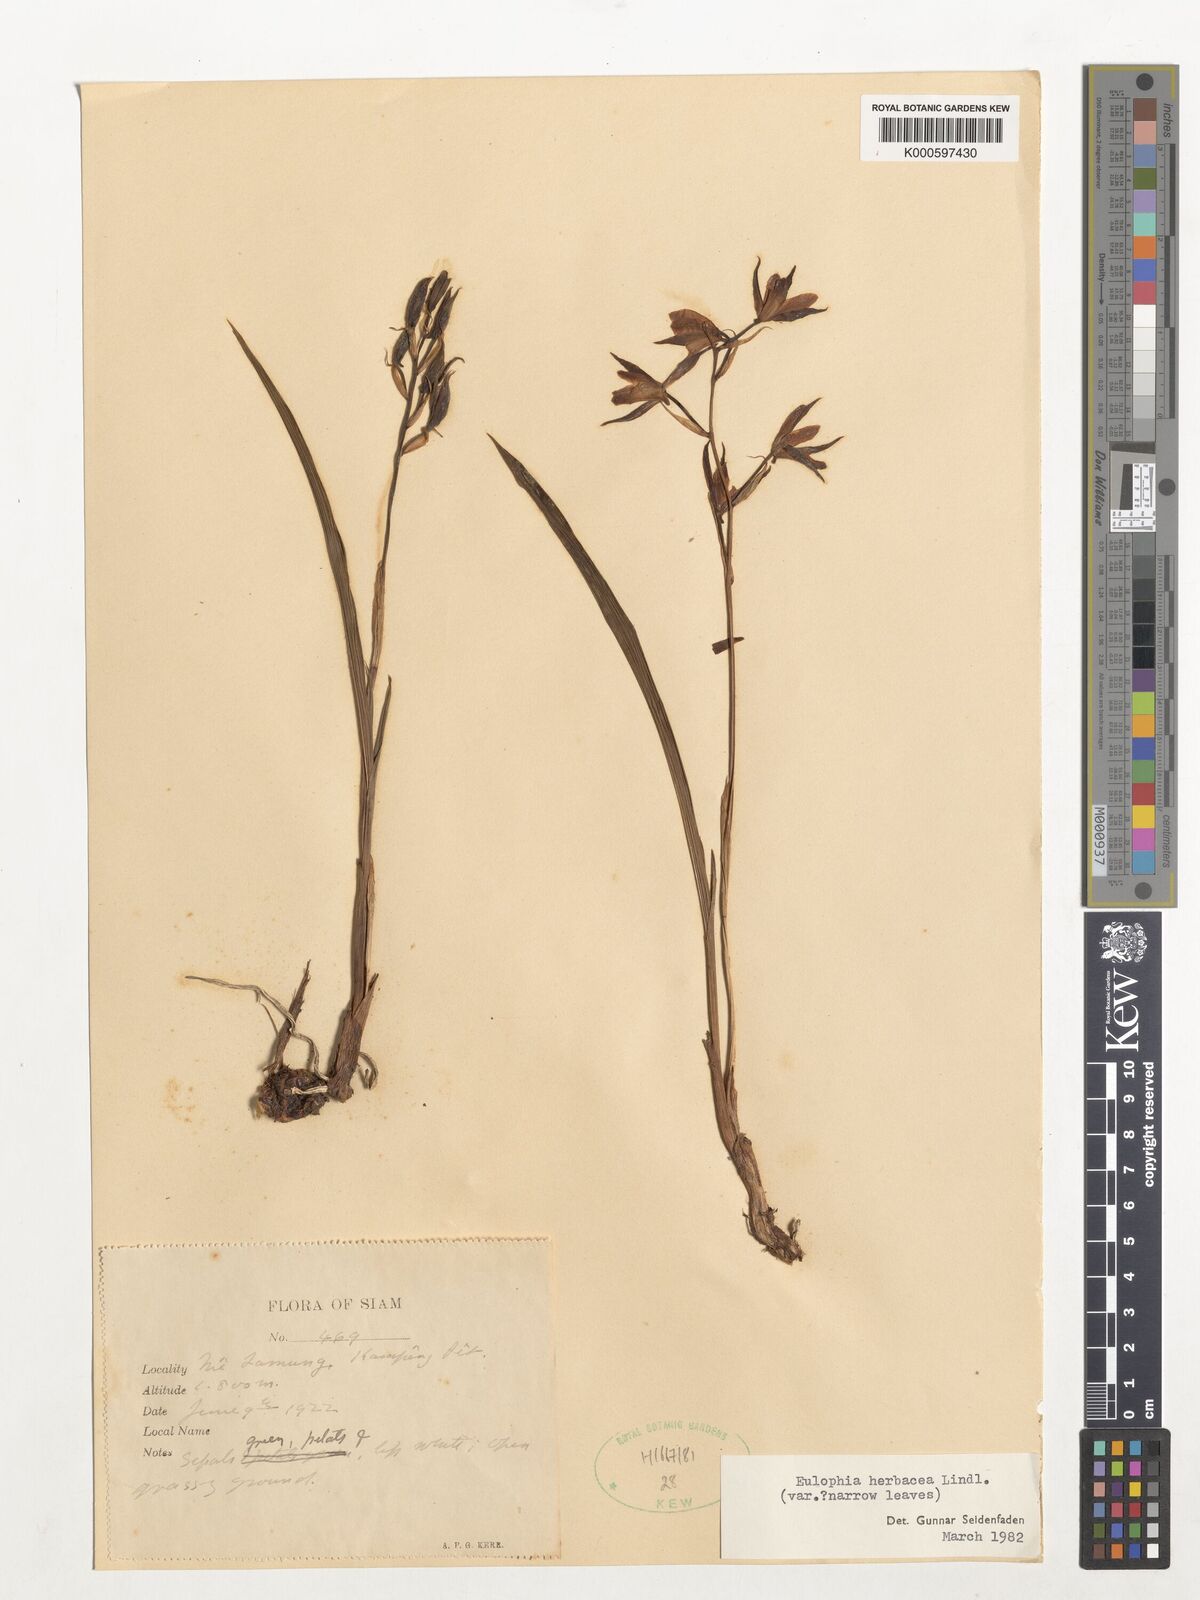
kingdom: Plantae
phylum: Tracheophyta
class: Liliopsida
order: Asparagales
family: Orchidaceae
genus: Eulophia
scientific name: Eulophia herbacea
